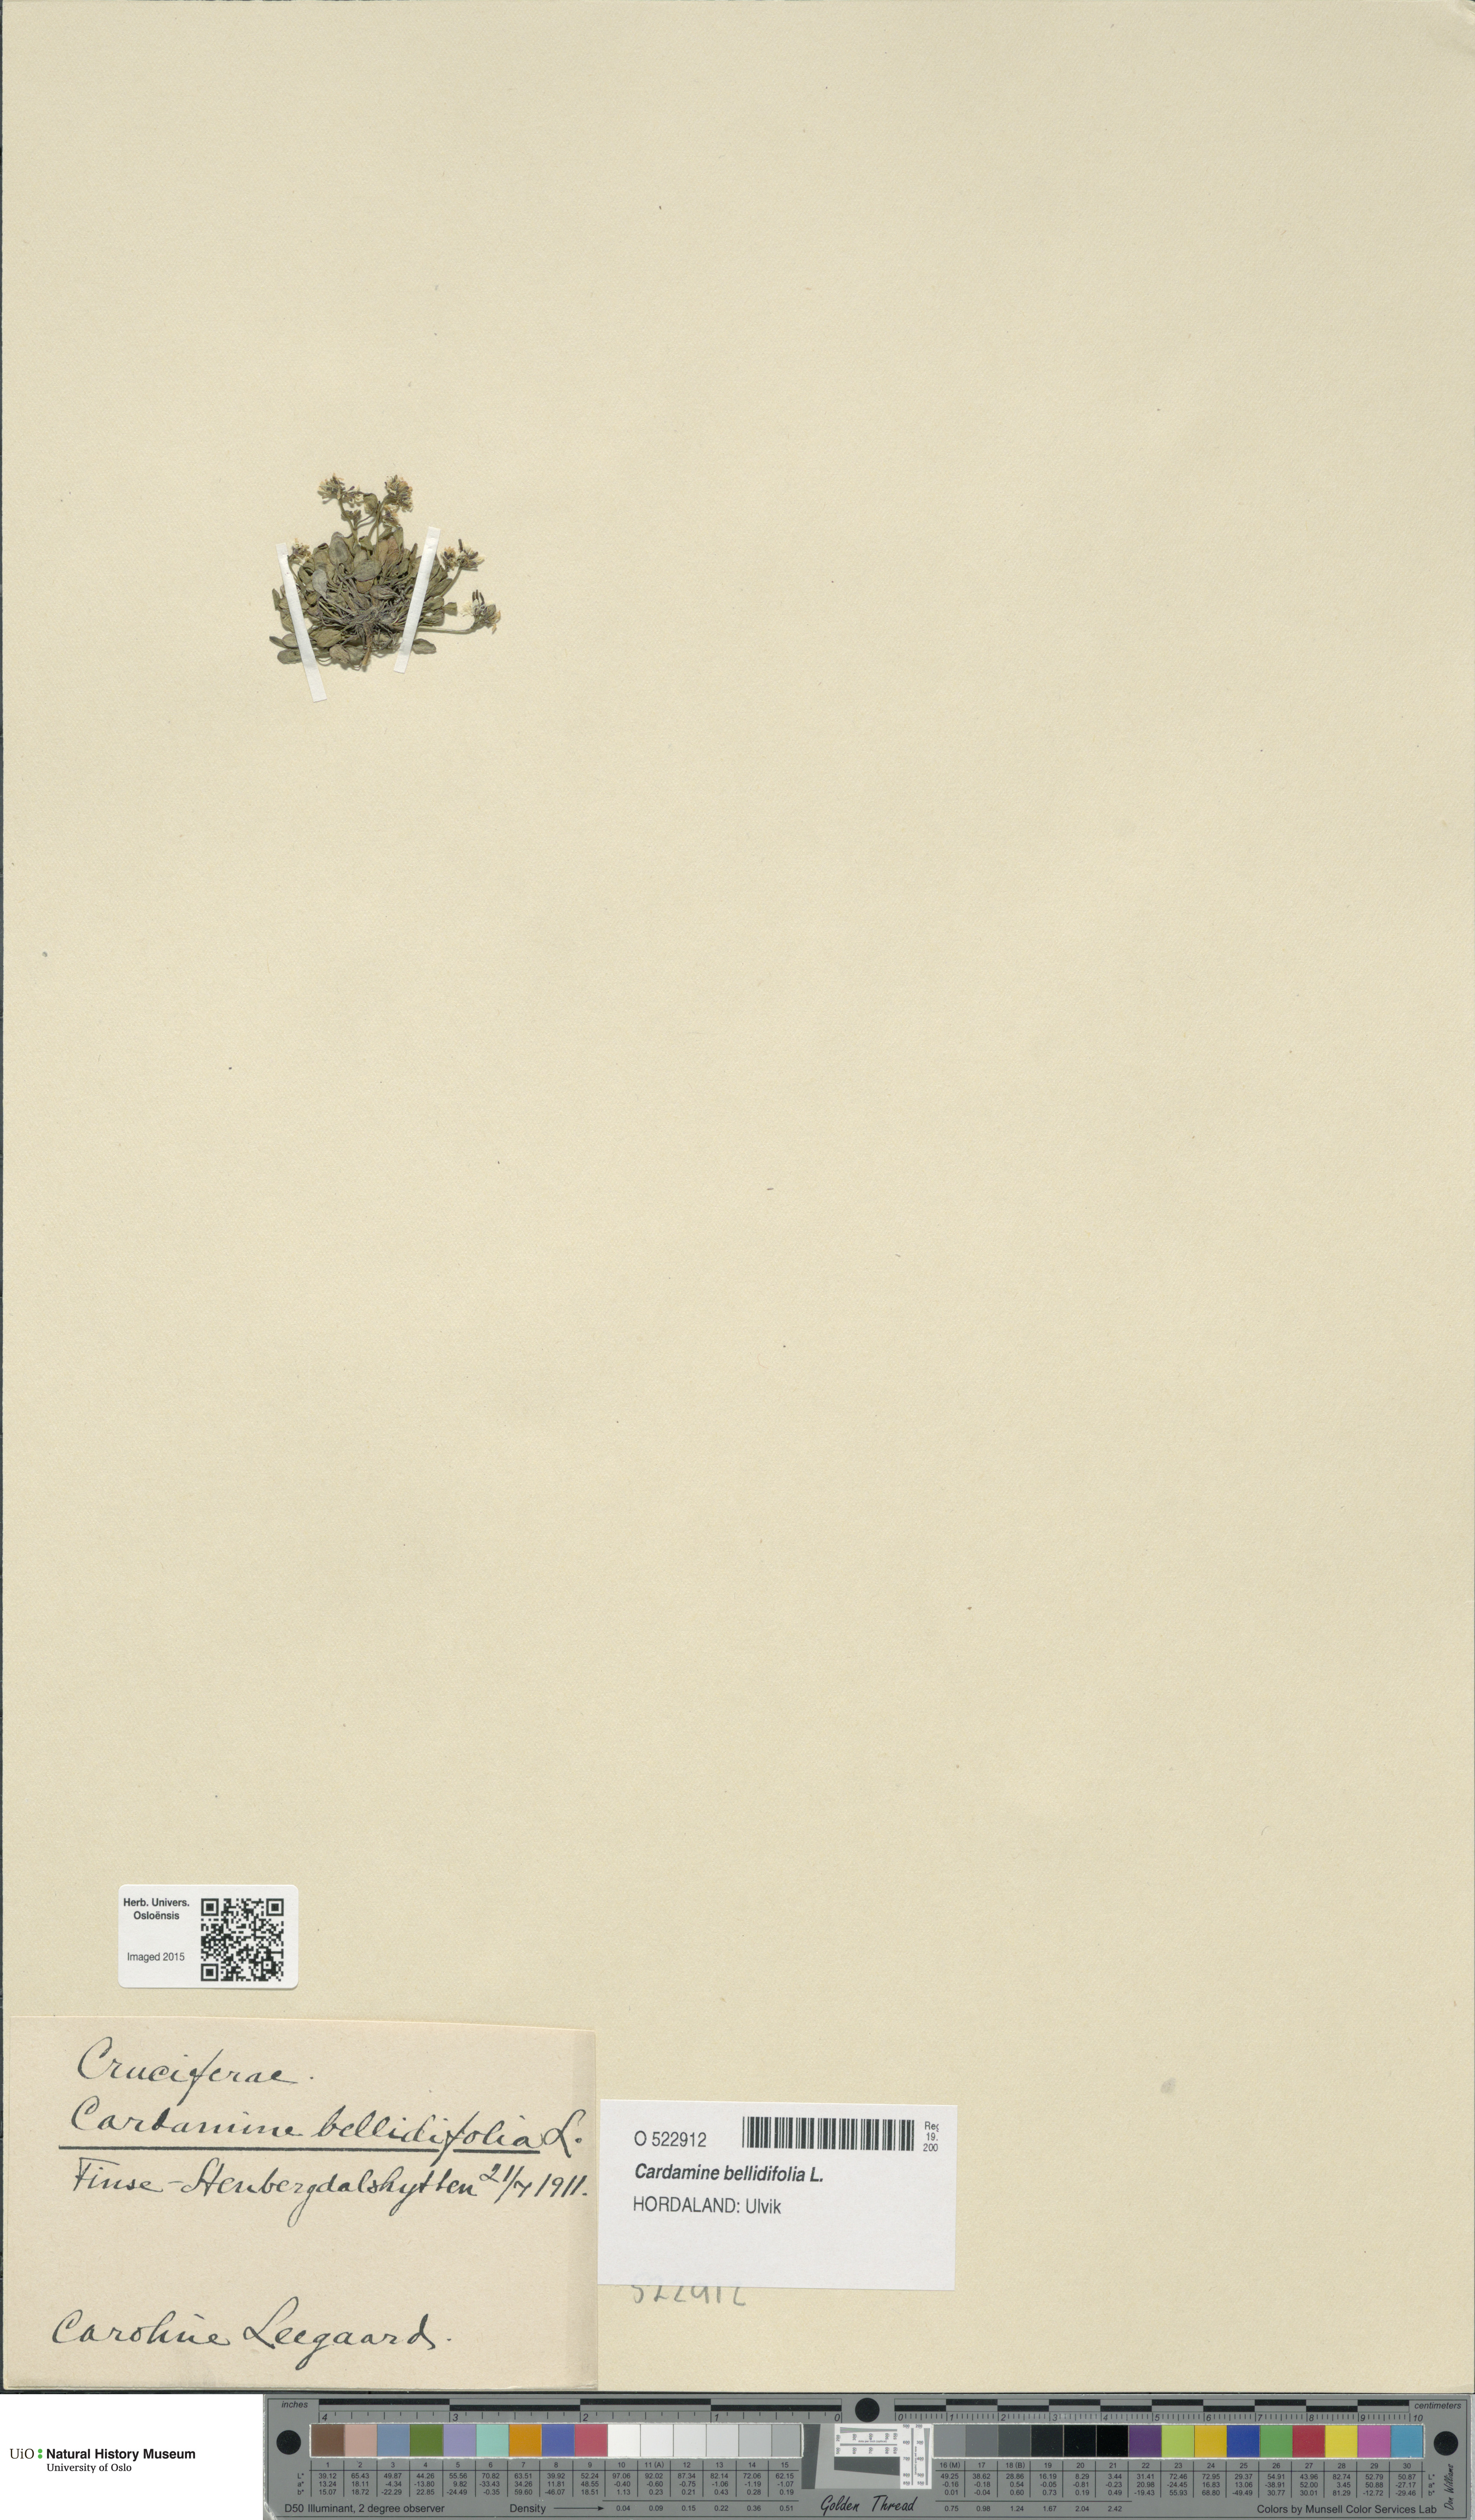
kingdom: Plantae
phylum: Tracheophyta
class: Magnoliopsida
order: Brassicales
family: Brassicaceae
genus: Cardamine
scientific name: Cardamine bellidifolia
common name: Alpine bittercress
